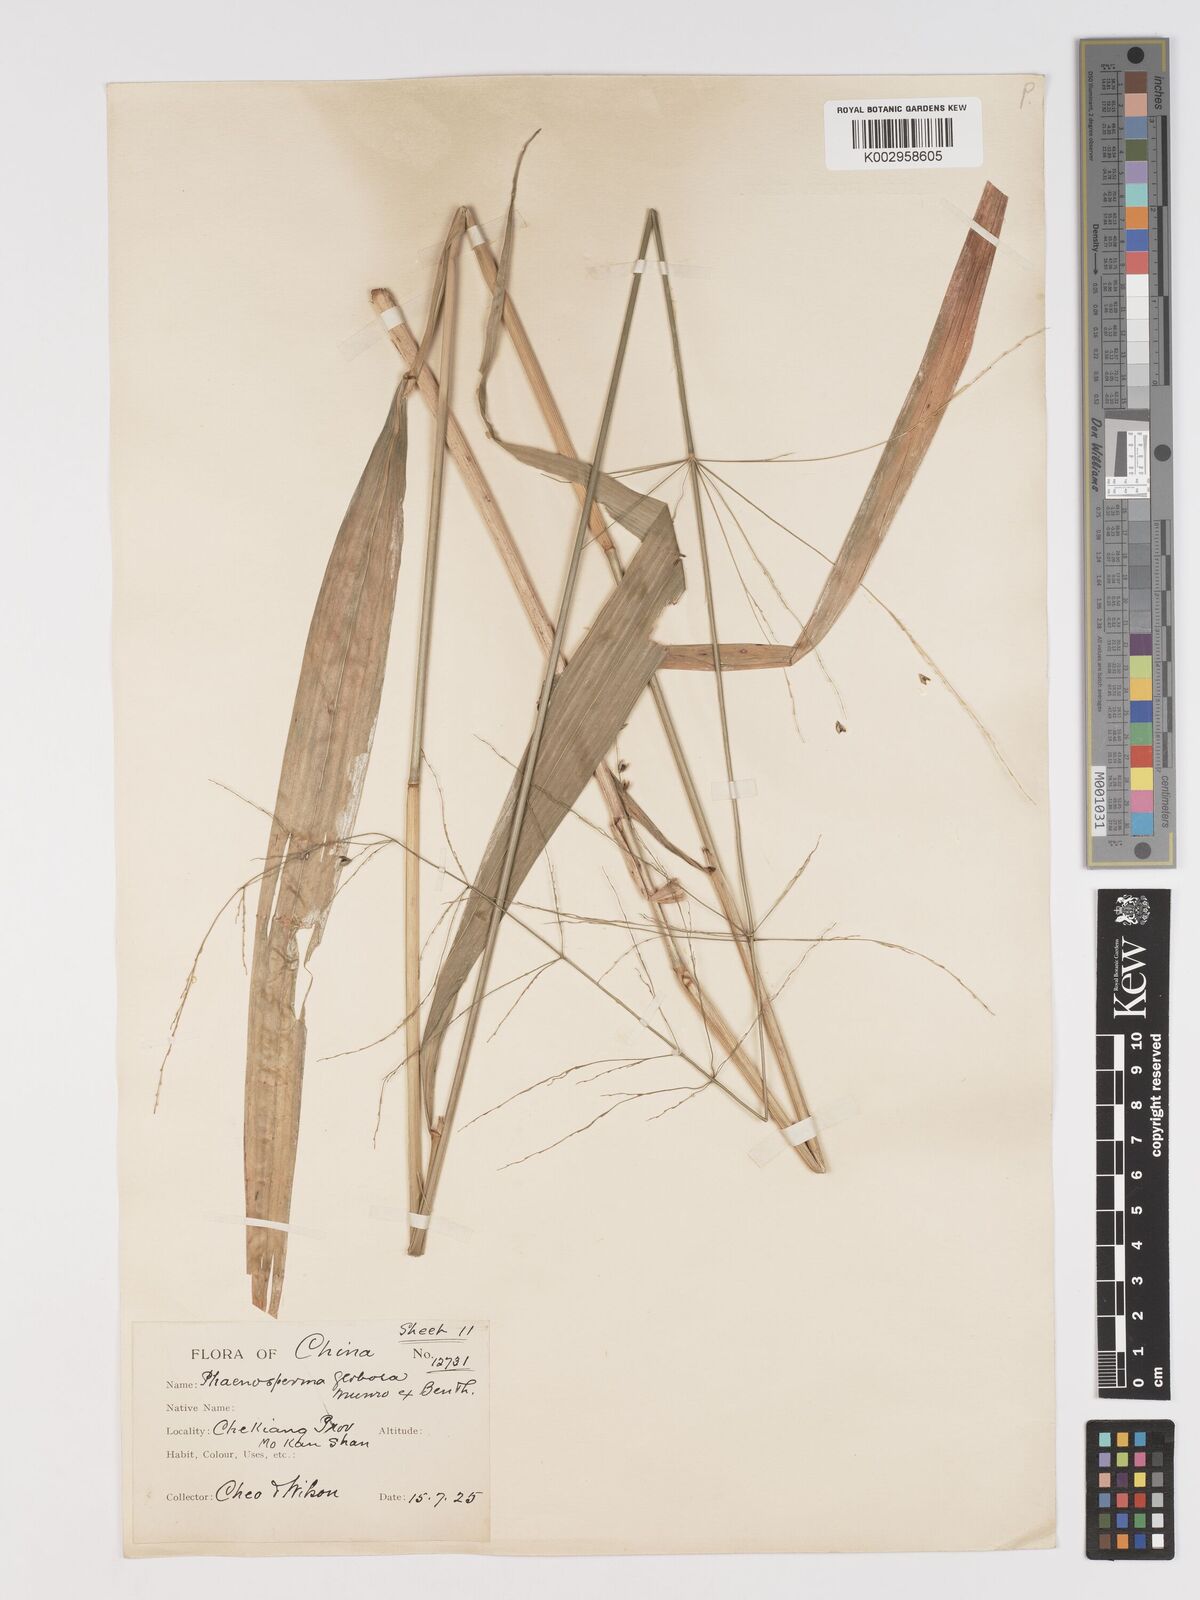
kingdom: Plantae
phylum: Tracheophyta
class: Liliopsida
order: Poales
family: Poaceae
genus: Phaenosperma
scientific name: Phaenosperma globosum
